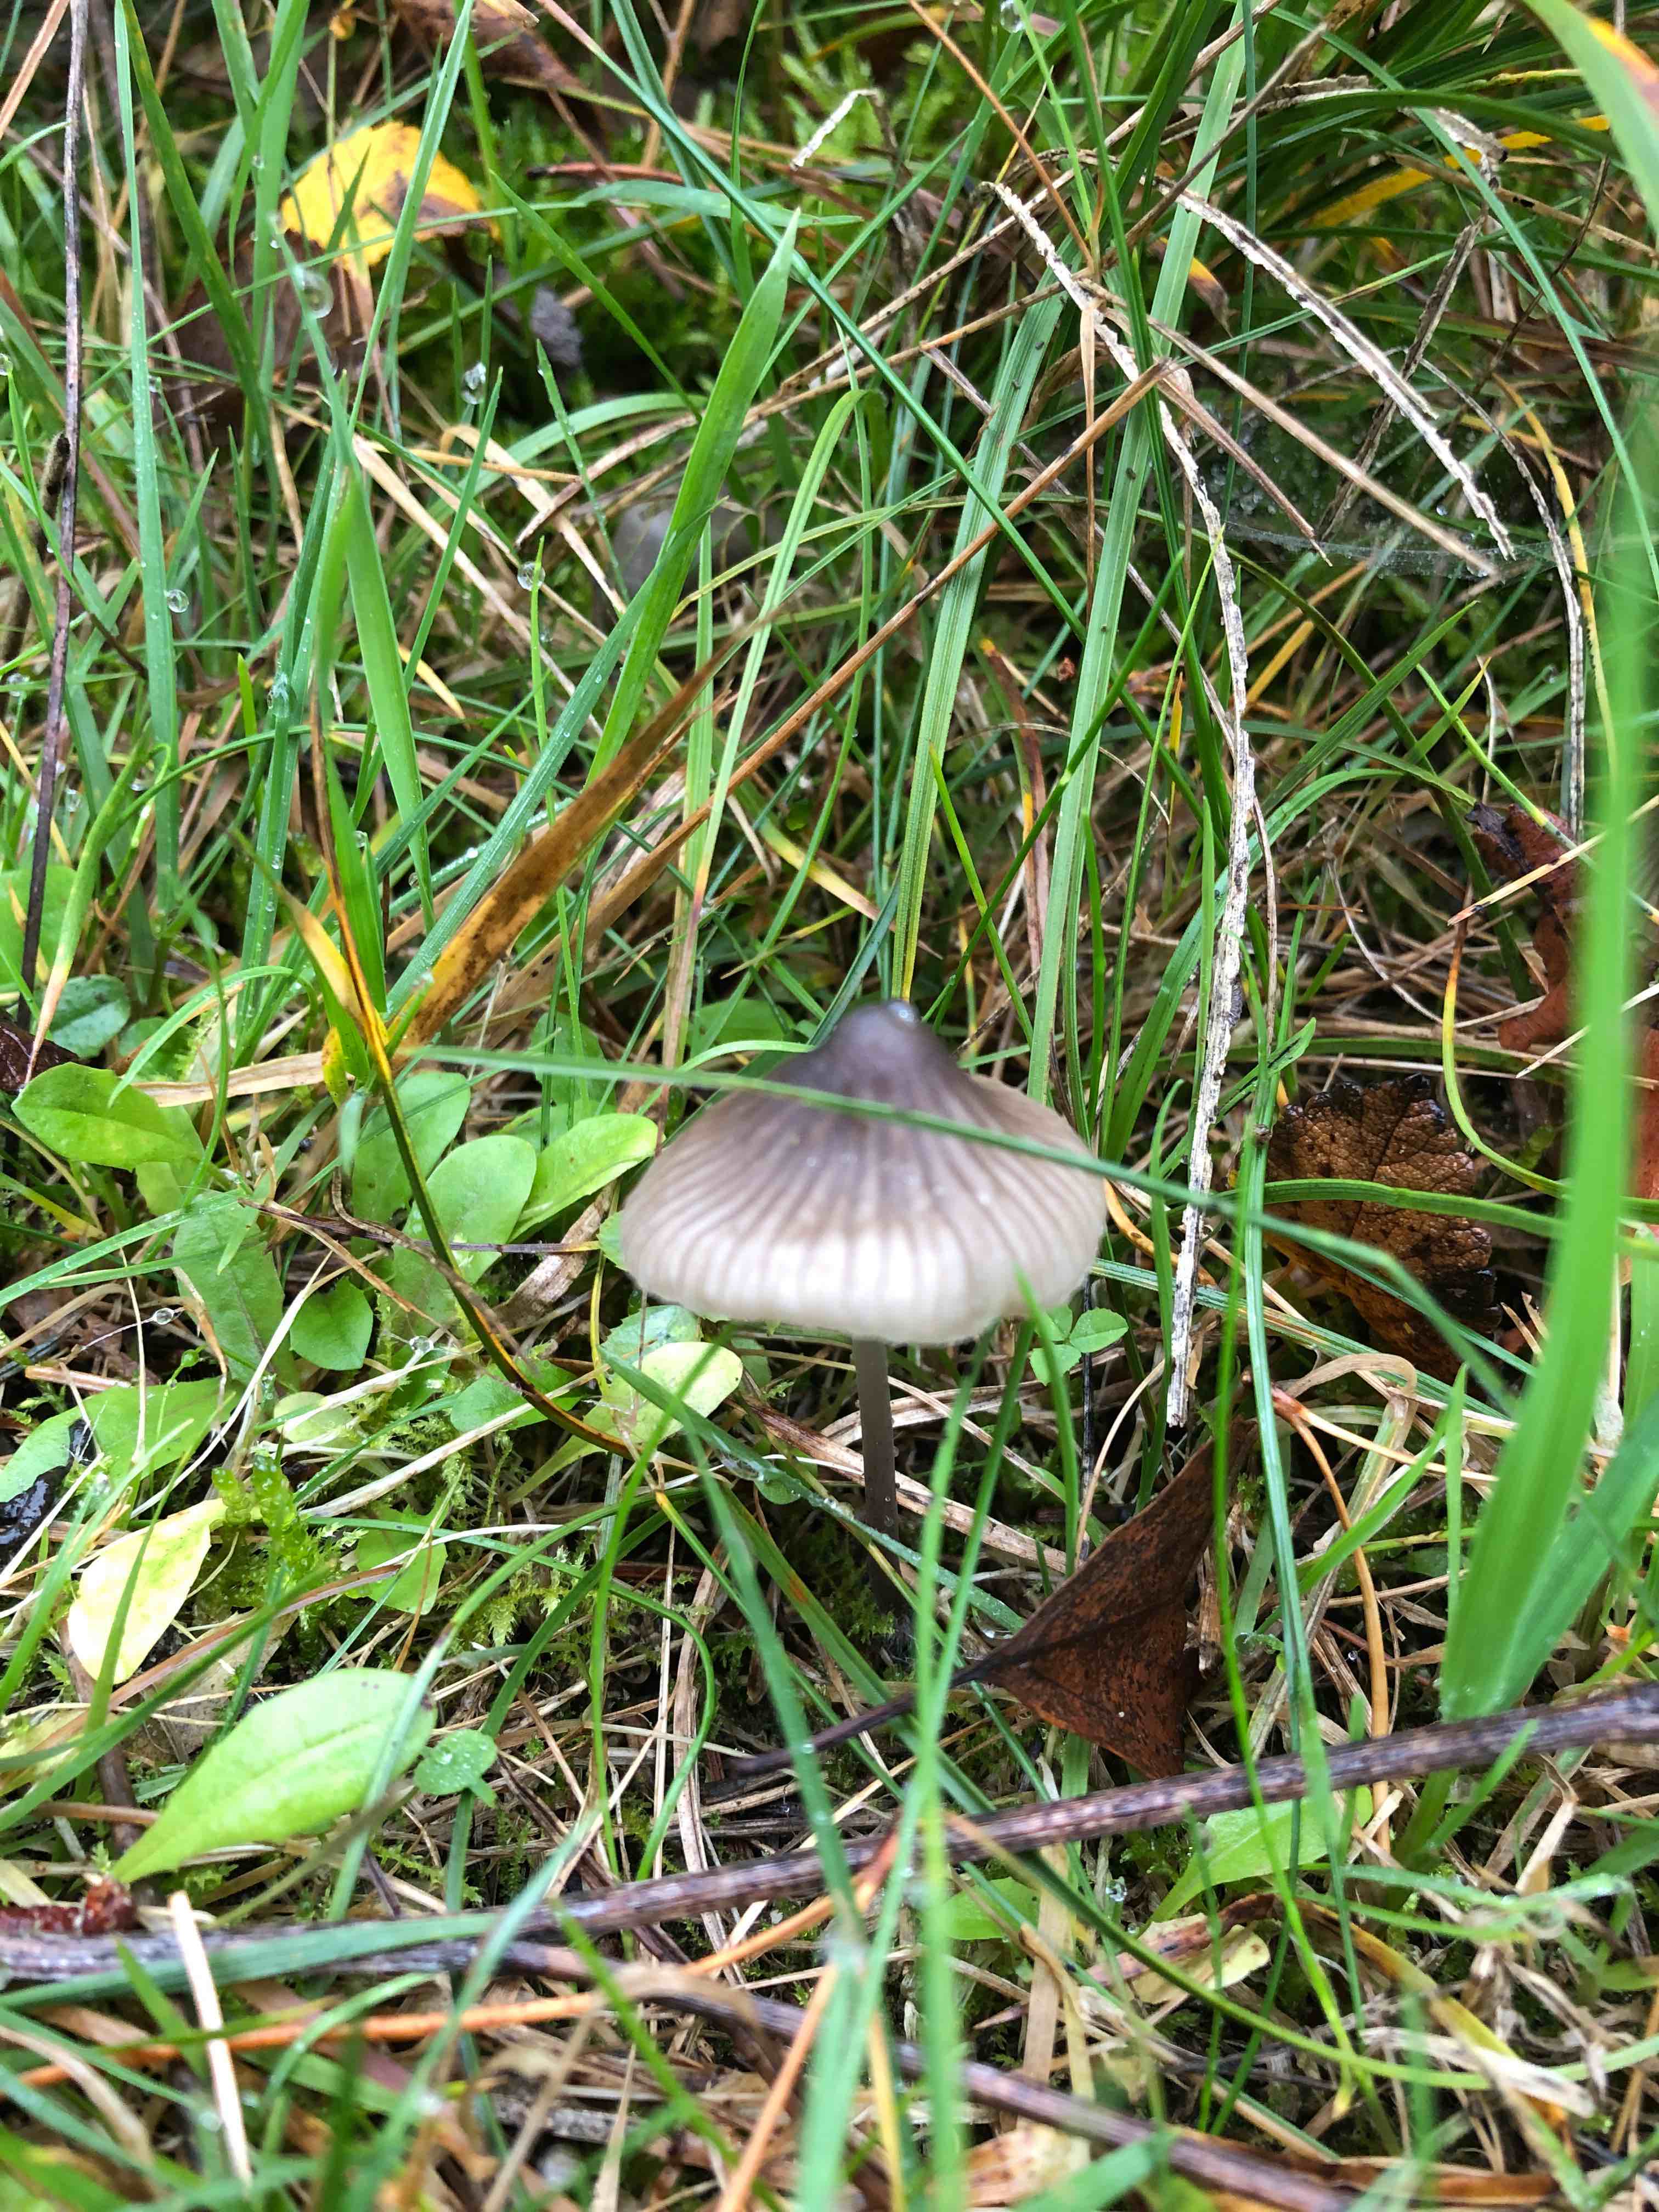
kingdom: Fungi
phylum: Basidiomycota
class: Agaricomycetes
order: Agaricales
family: Mycenaceae
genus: Mycena
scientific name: Mycena
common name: huesvamp
